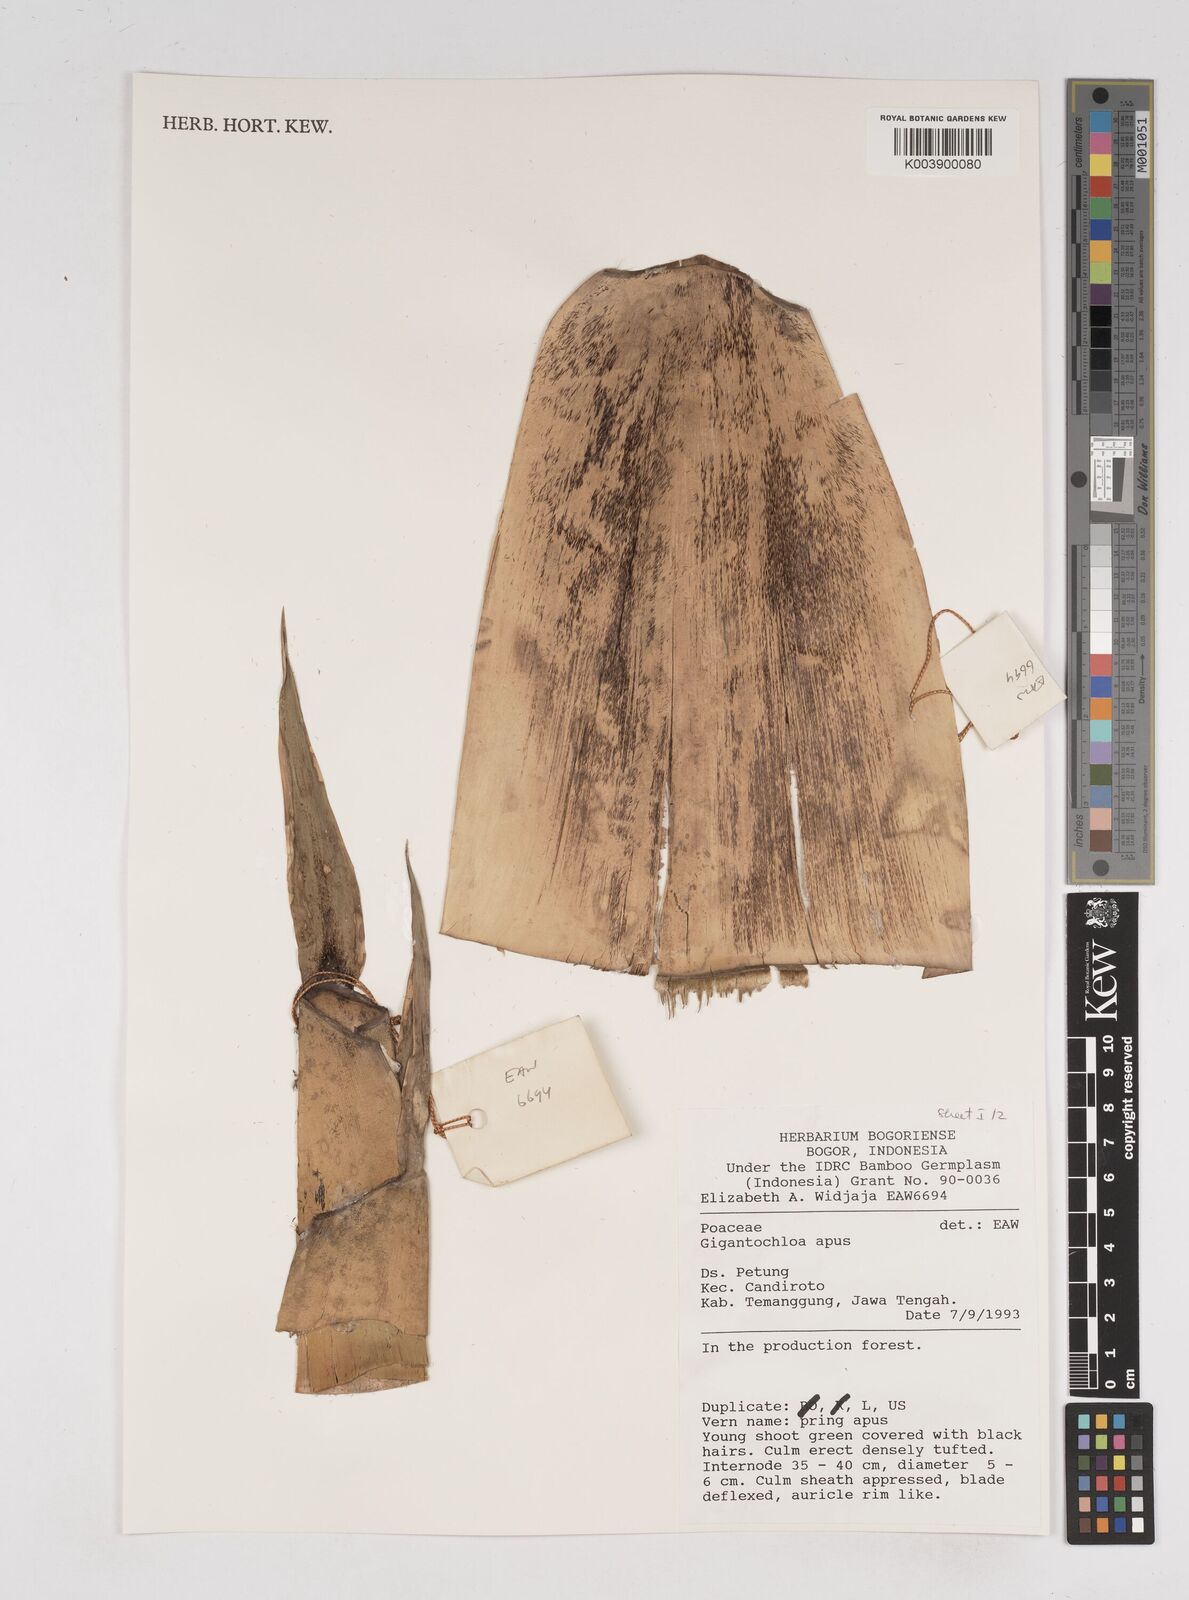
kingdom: Plantae
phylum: Tracheophyta
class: Liliopsida
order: Poales
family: Poaceae
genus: Gigantochloa
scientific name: Gigantochloa apus
